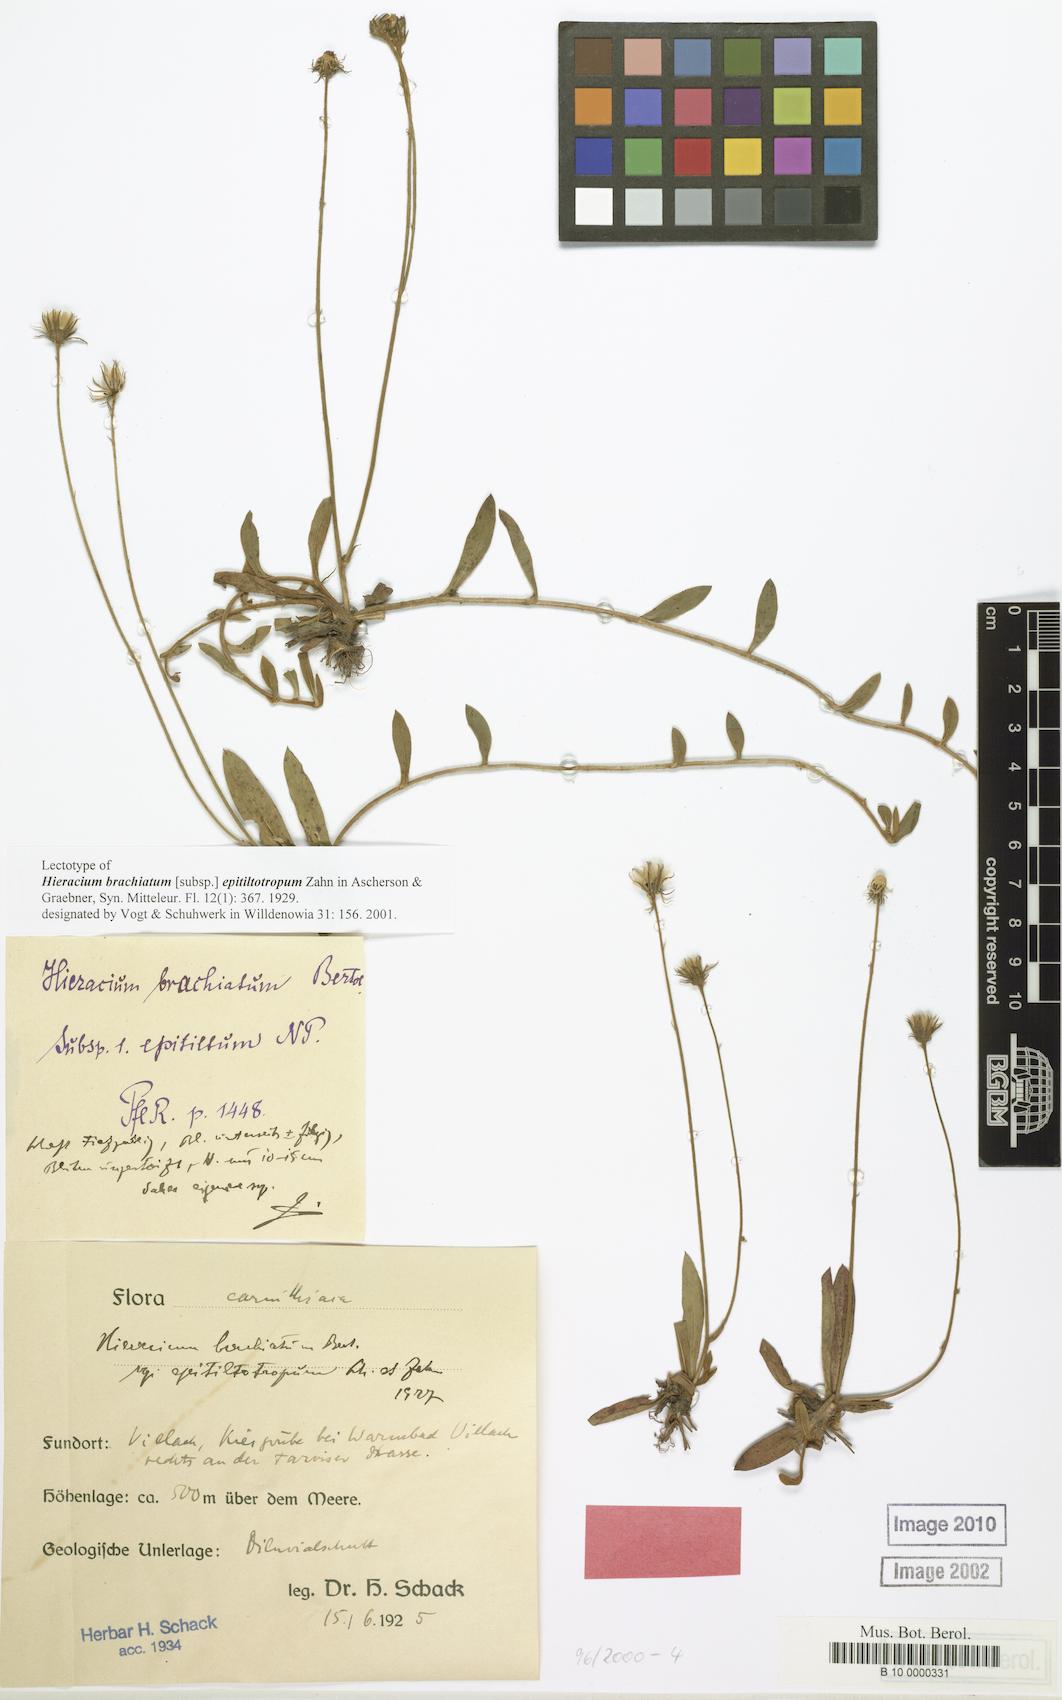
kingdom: Plantae
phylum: Tracheophyta
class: Magnoliopsida
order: Asterales
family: Asteraceae
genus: Pilosella
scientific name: Pilosella acutifolia
